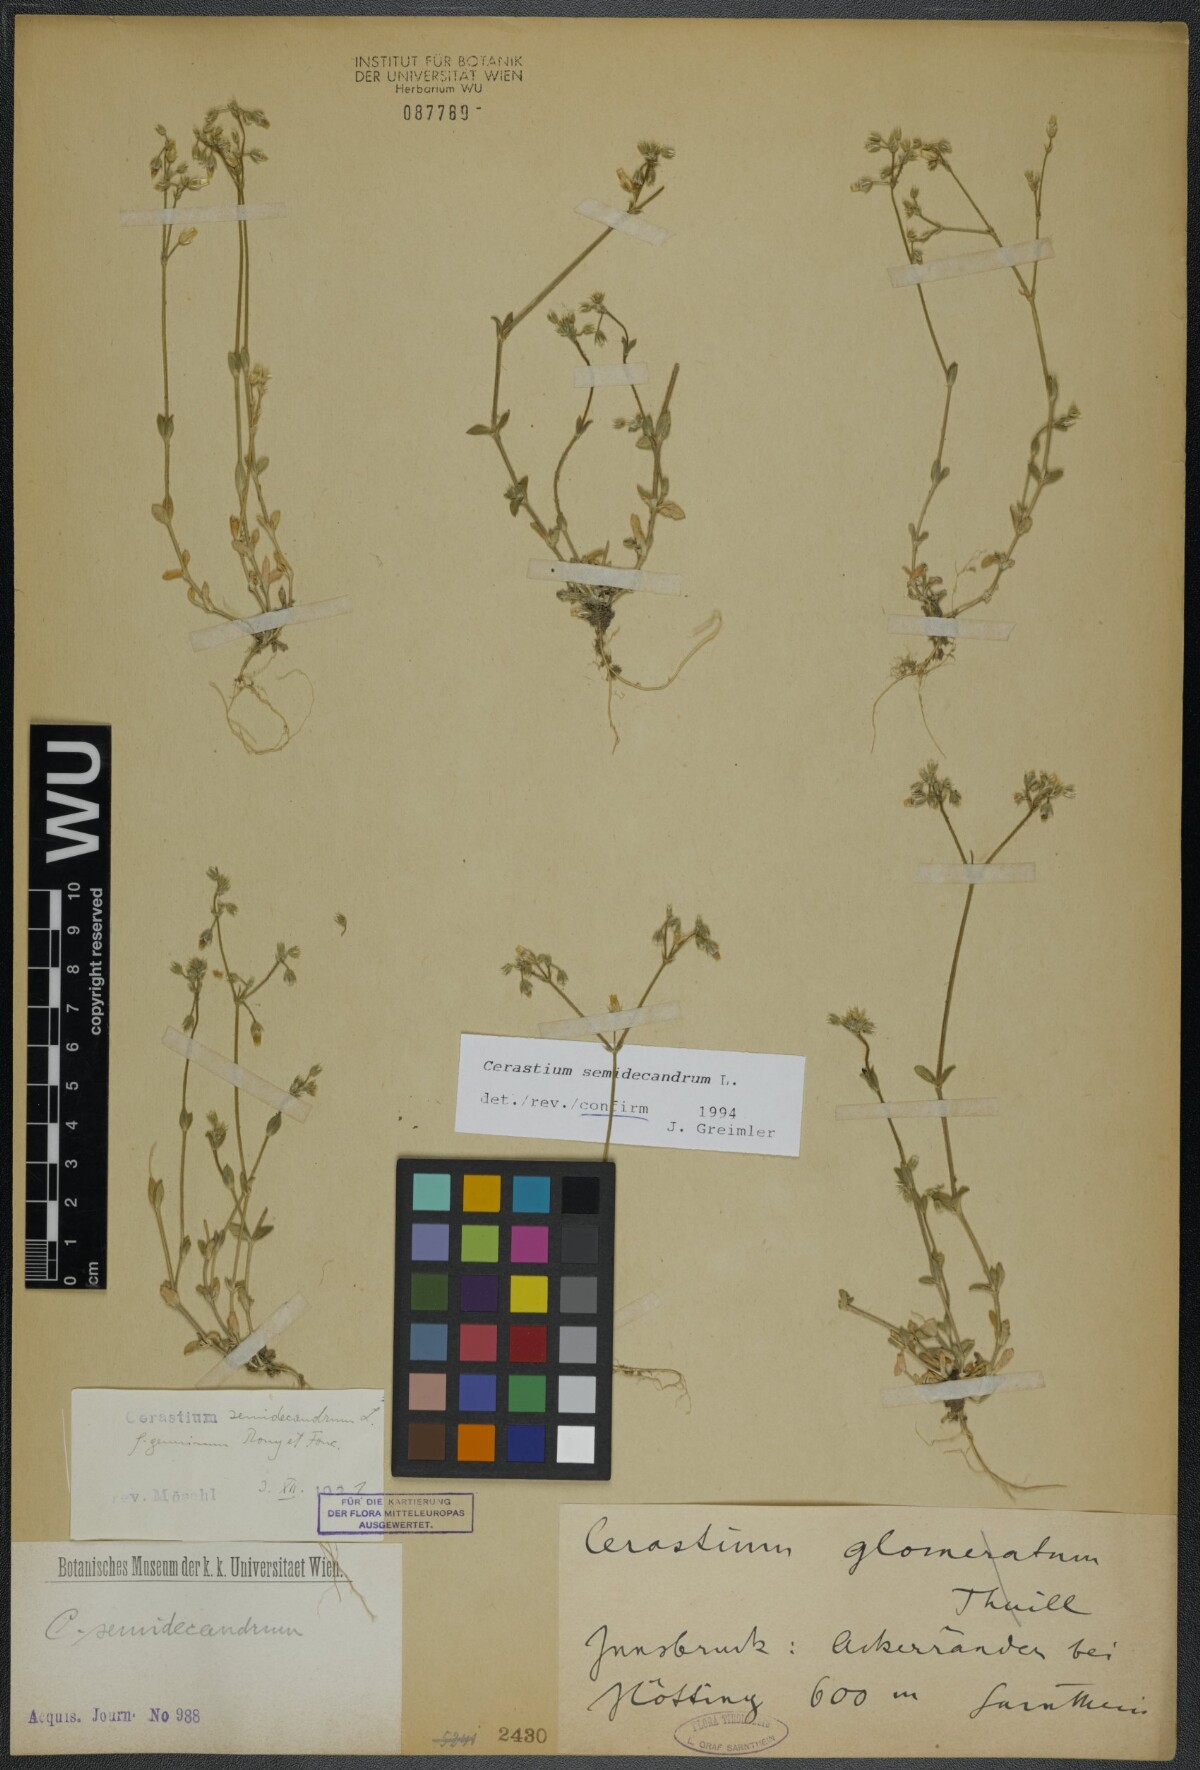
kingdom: Plantae
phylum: Tracheophyta
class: Magnoliopsida
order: Caryophyllales
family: Caryophyllaceae
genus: Cerastium
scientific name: Cerastium semidecandrum
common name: Little mouse-ear
